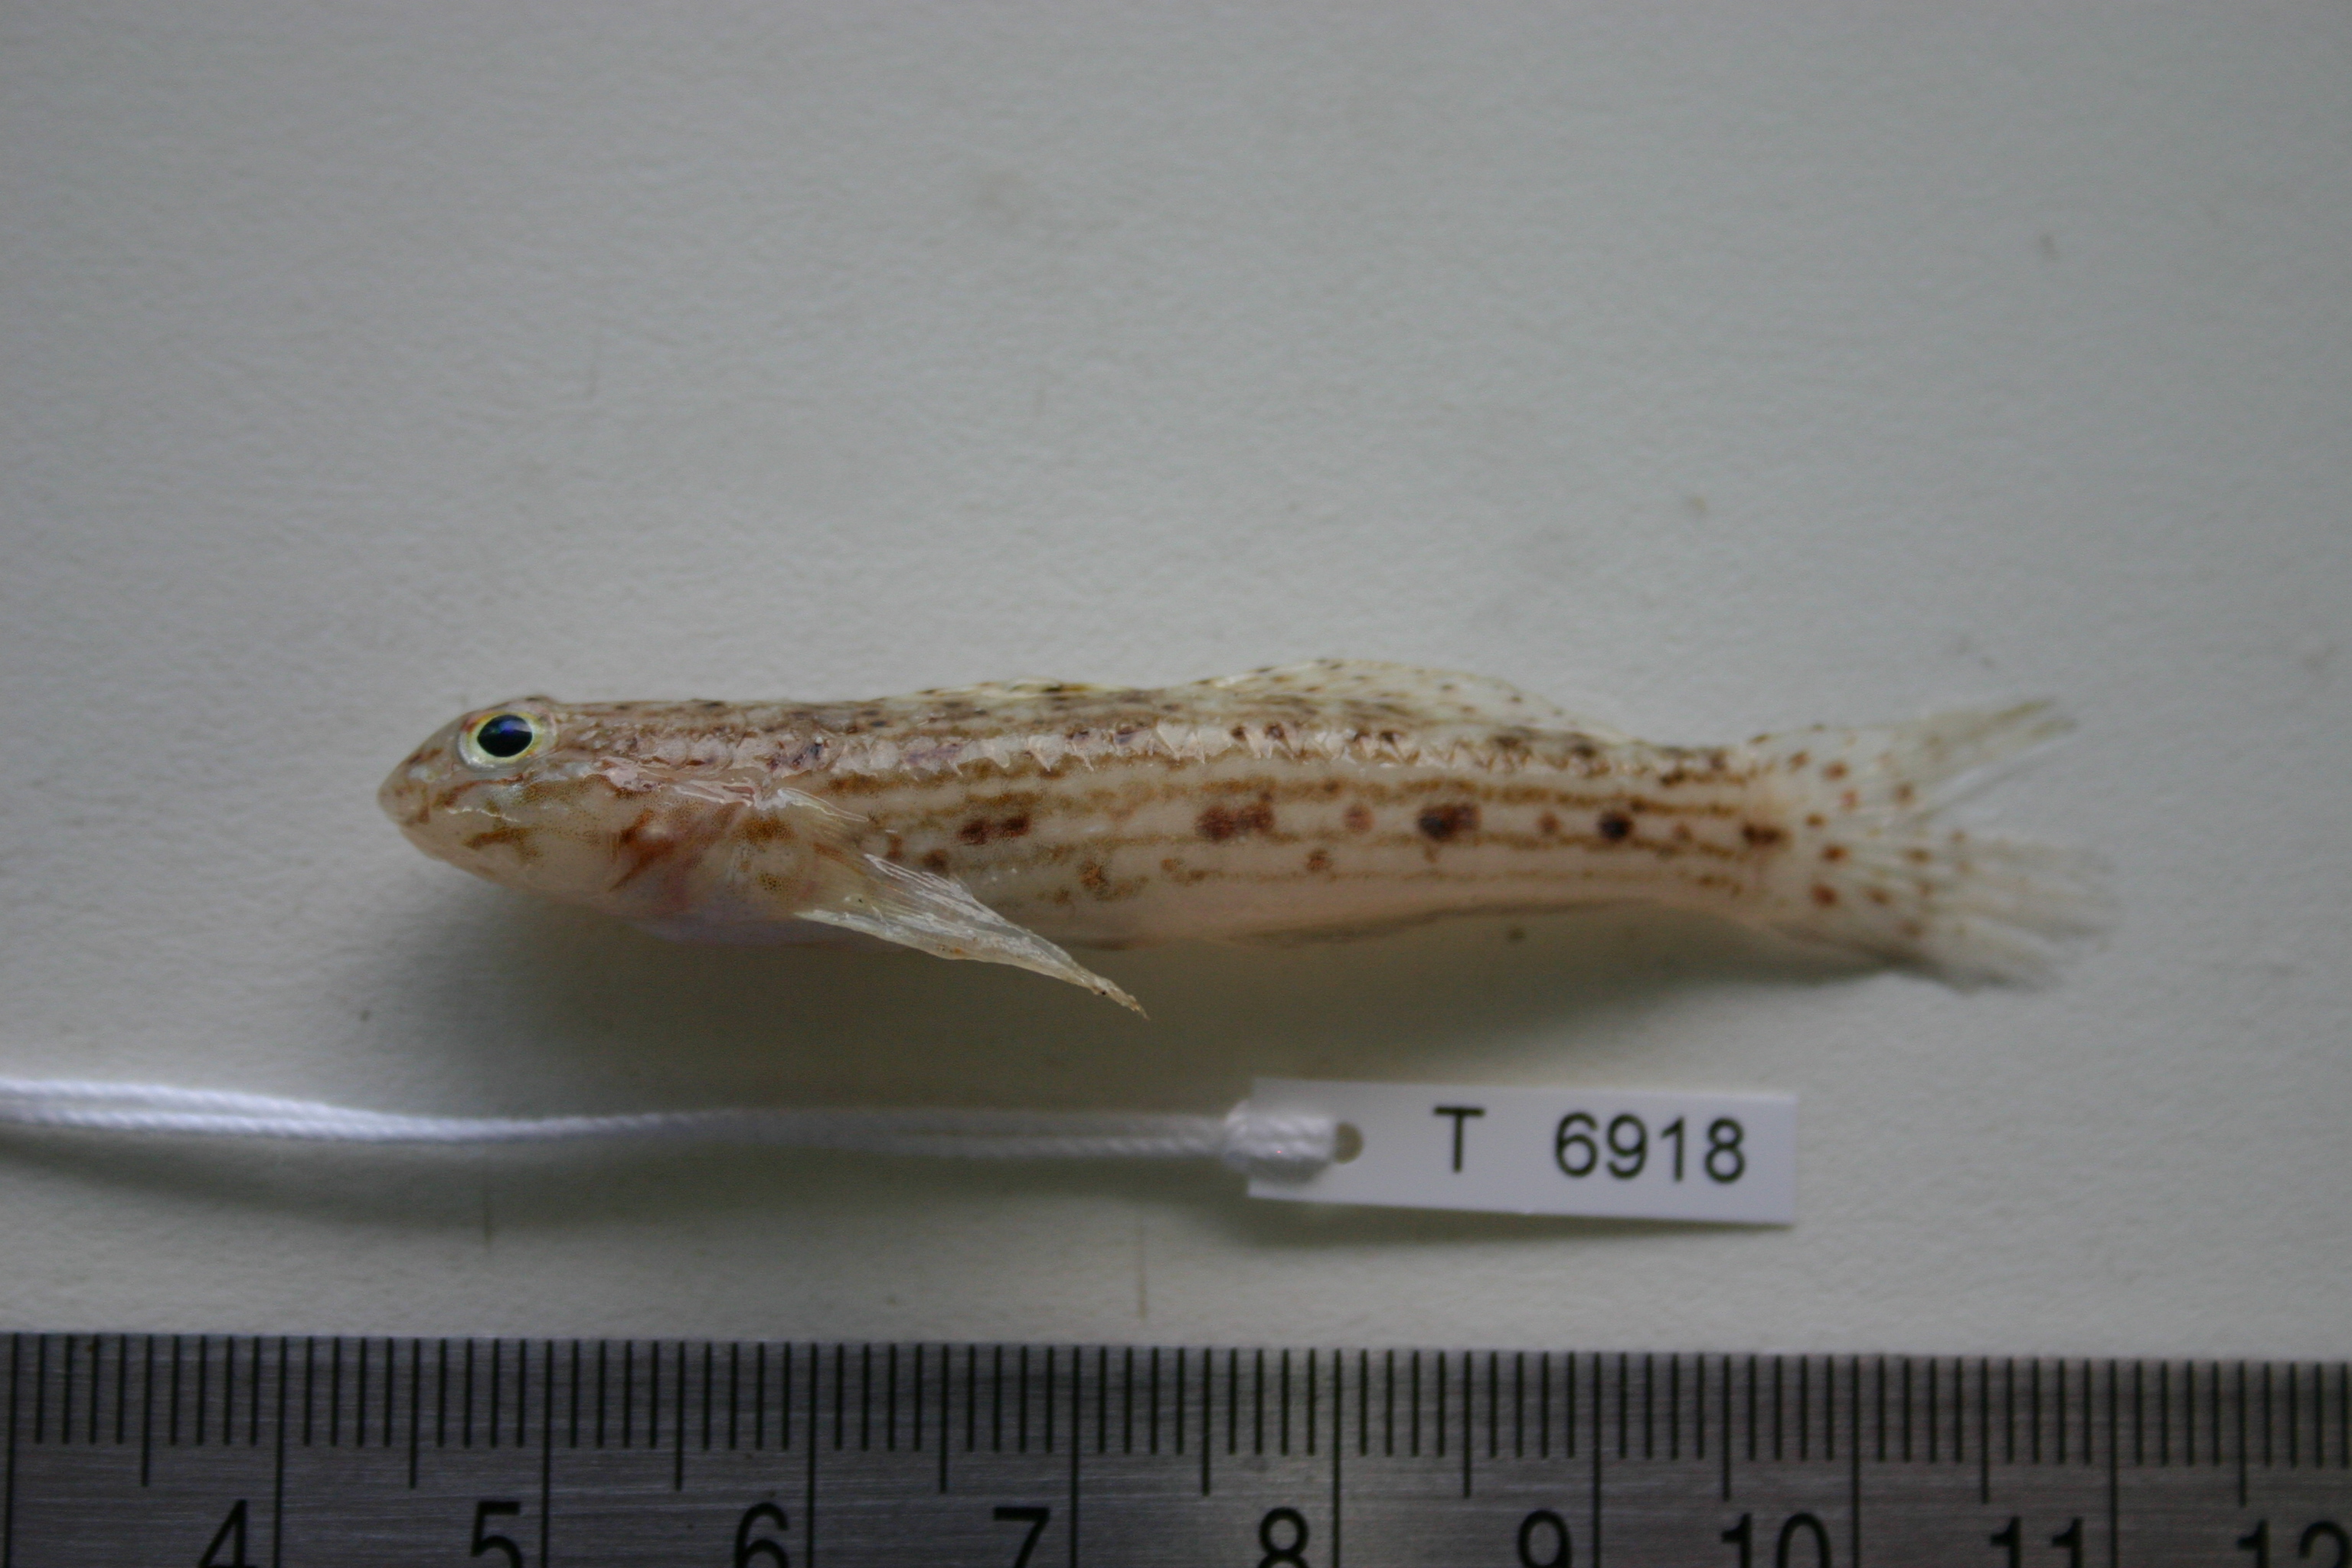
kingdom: Animalia
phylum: Chordata
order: Perciformes
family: Gobiidae
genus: Istigobius
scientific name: Istigobius decoratus
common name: Decorated goby
